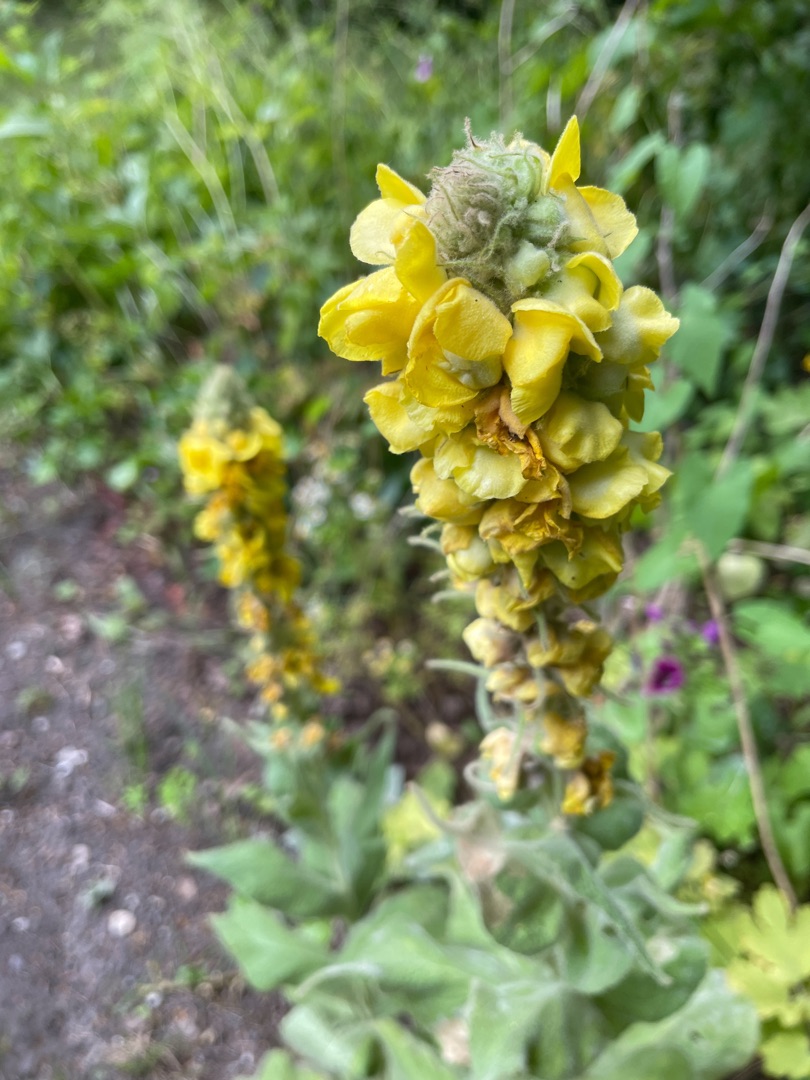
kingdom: Plantae
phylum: Tracheophyta
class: Magnoliopsida
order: Lamiales
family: Scrophulariaceae
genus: Verbascum
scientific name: Verbascum densiflorum
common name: Uldbladet kongelys
